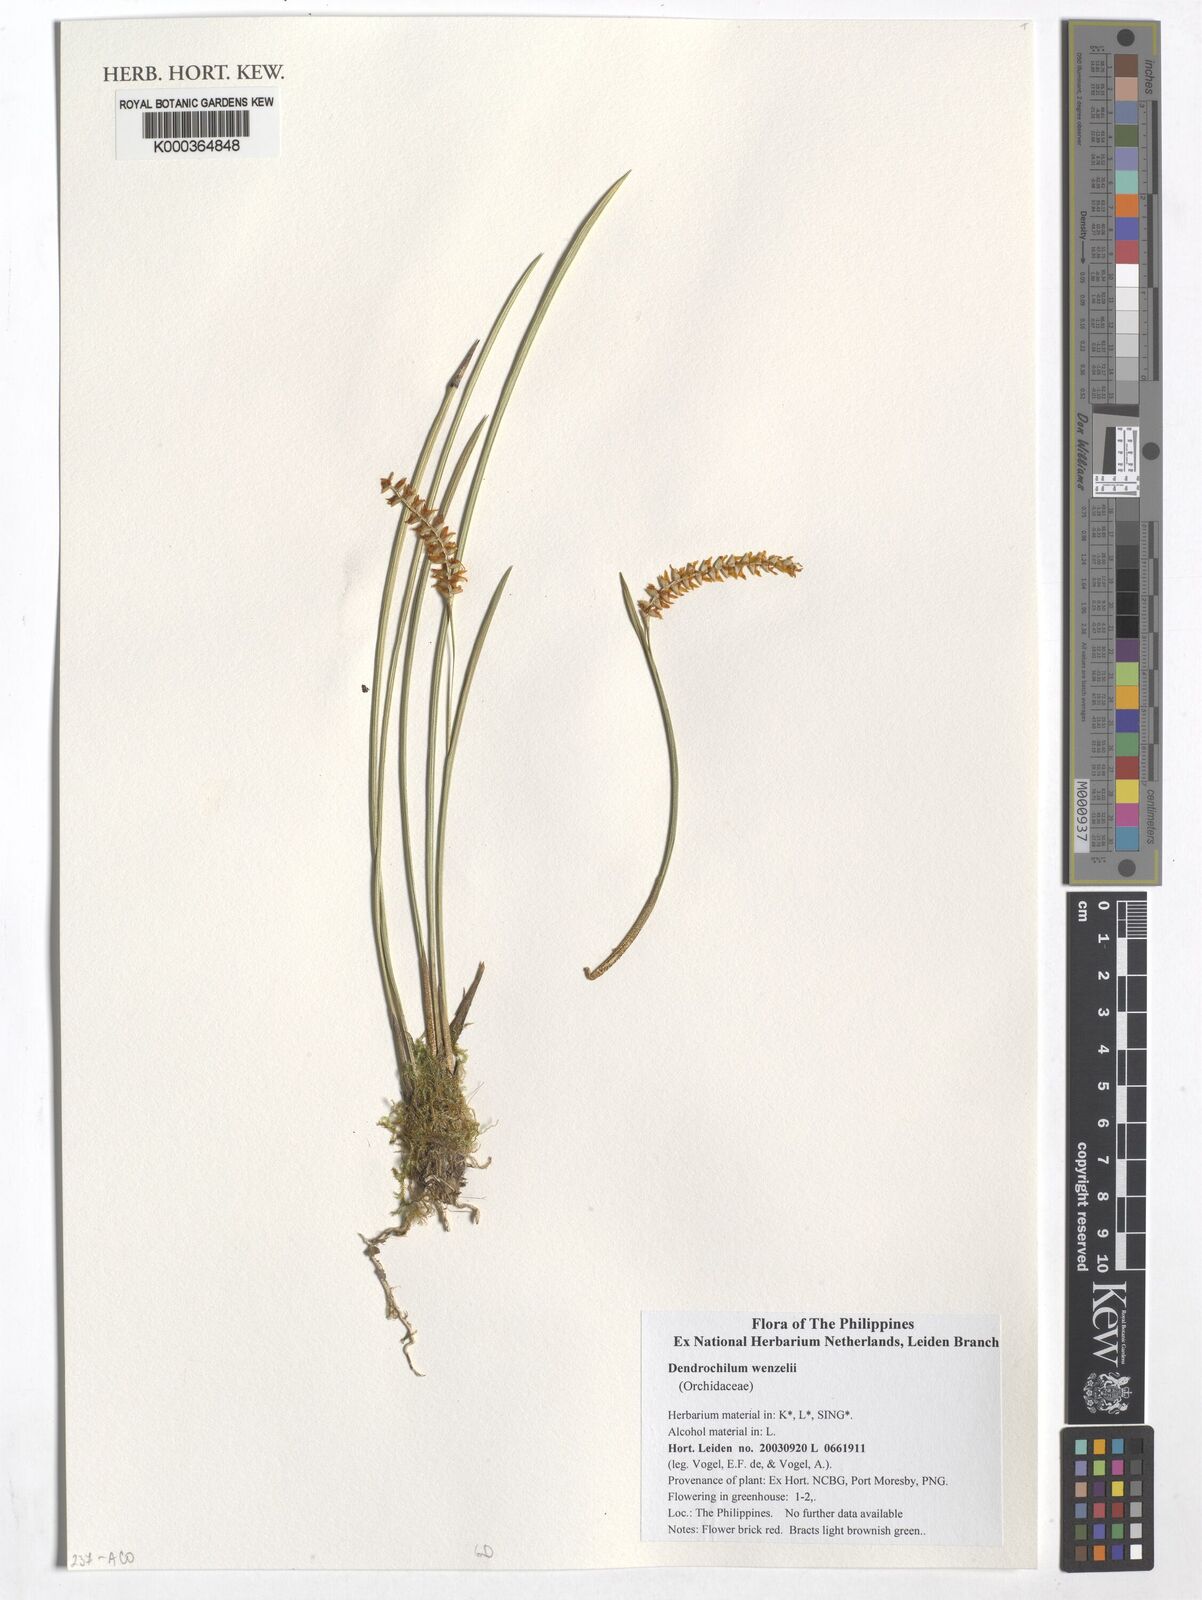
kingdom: Plantae
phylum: Tracheophyta
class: Liliopsida
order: Asparagales
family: Orchidaceae
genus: Coelogyne
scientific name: Coelogyne wenzelii
